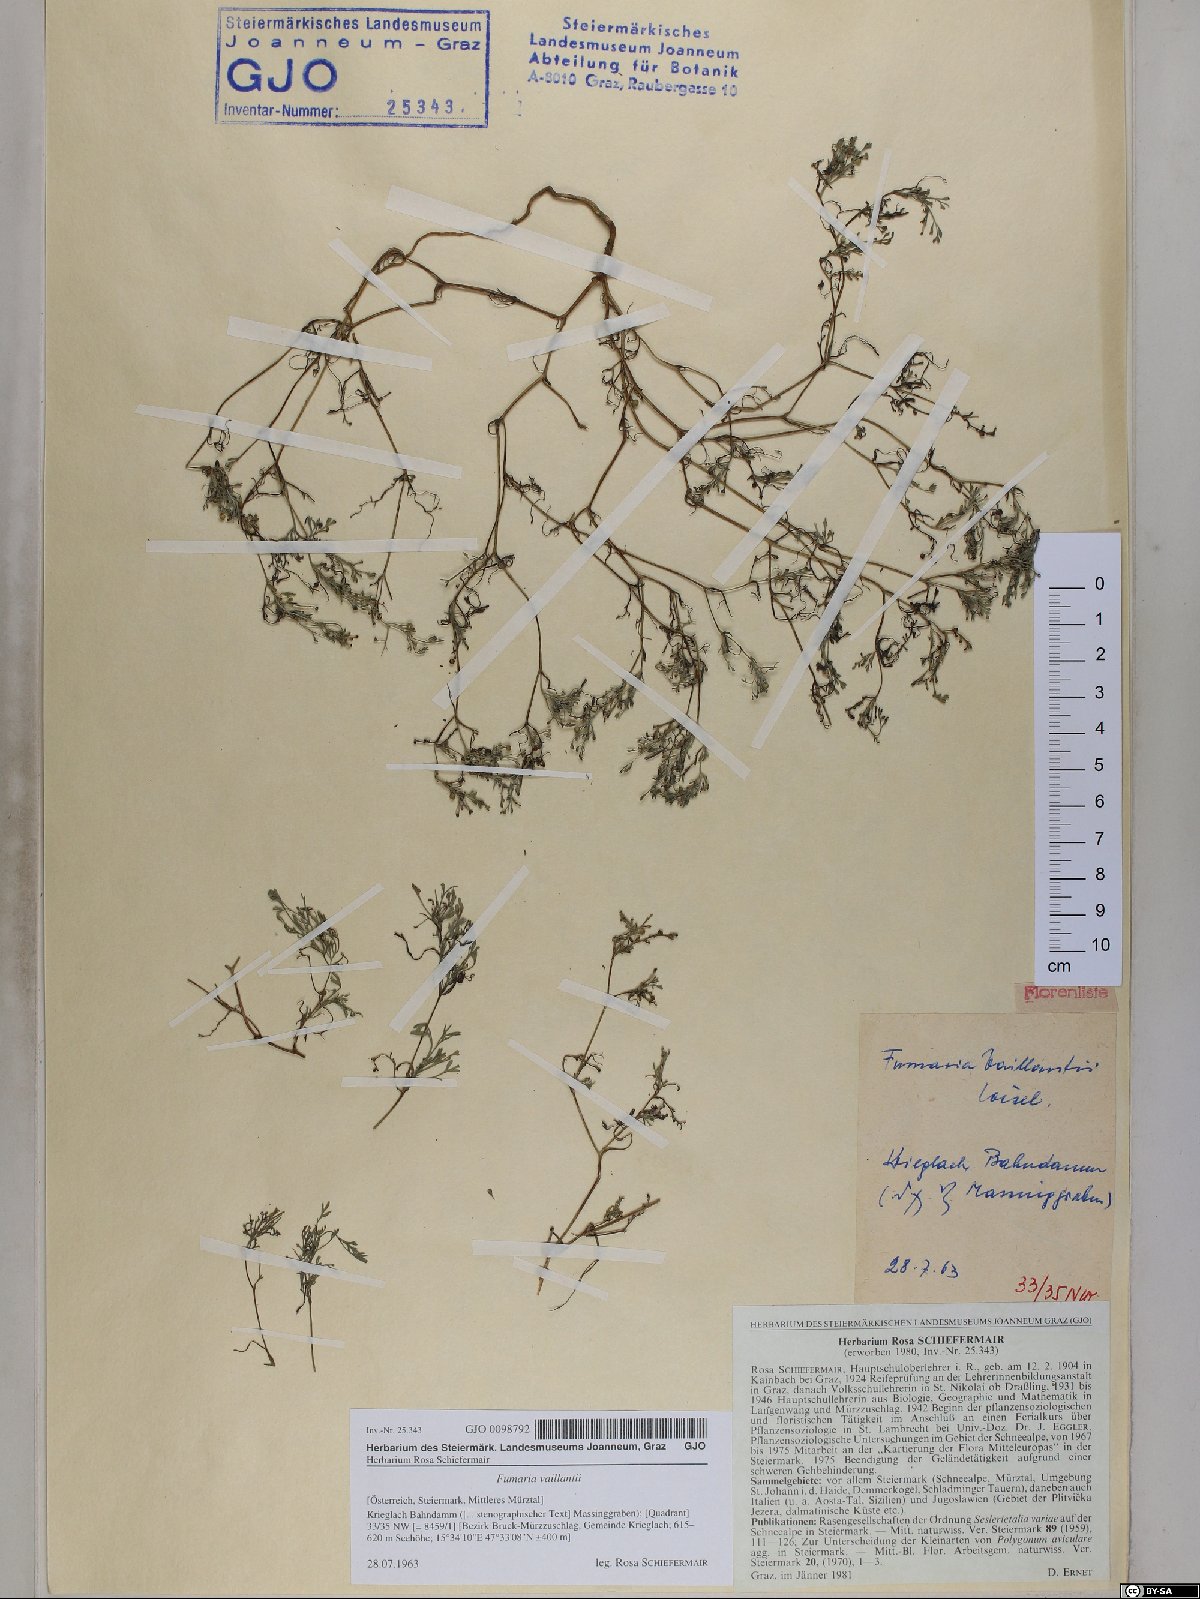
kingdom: Plantae
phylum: Tracheophyta
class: Magnoliopsida
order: Ranunculales
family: Papaveraceae
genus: Fumaria
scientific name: Fumaria vaillantii
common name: Few-flowered fumitory
